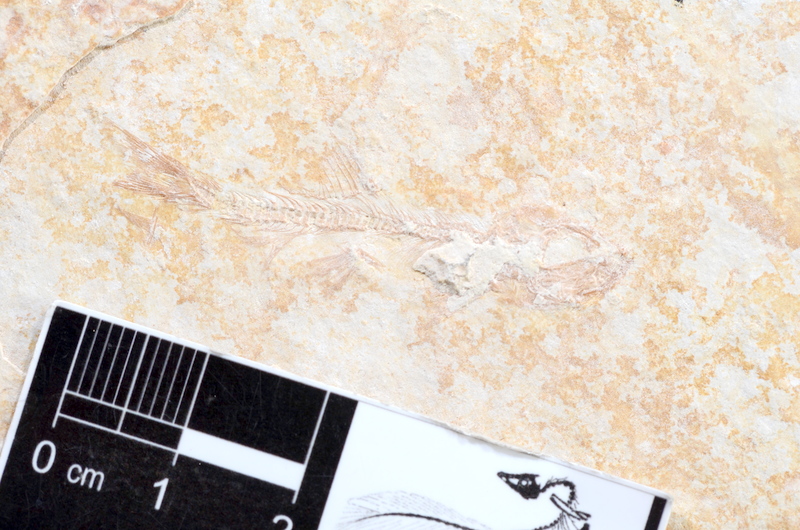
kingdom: Animalia
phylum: Chordata
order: Elopiformes
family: Anaethalionidae
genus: Anaethalion
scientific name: Anaethalion
